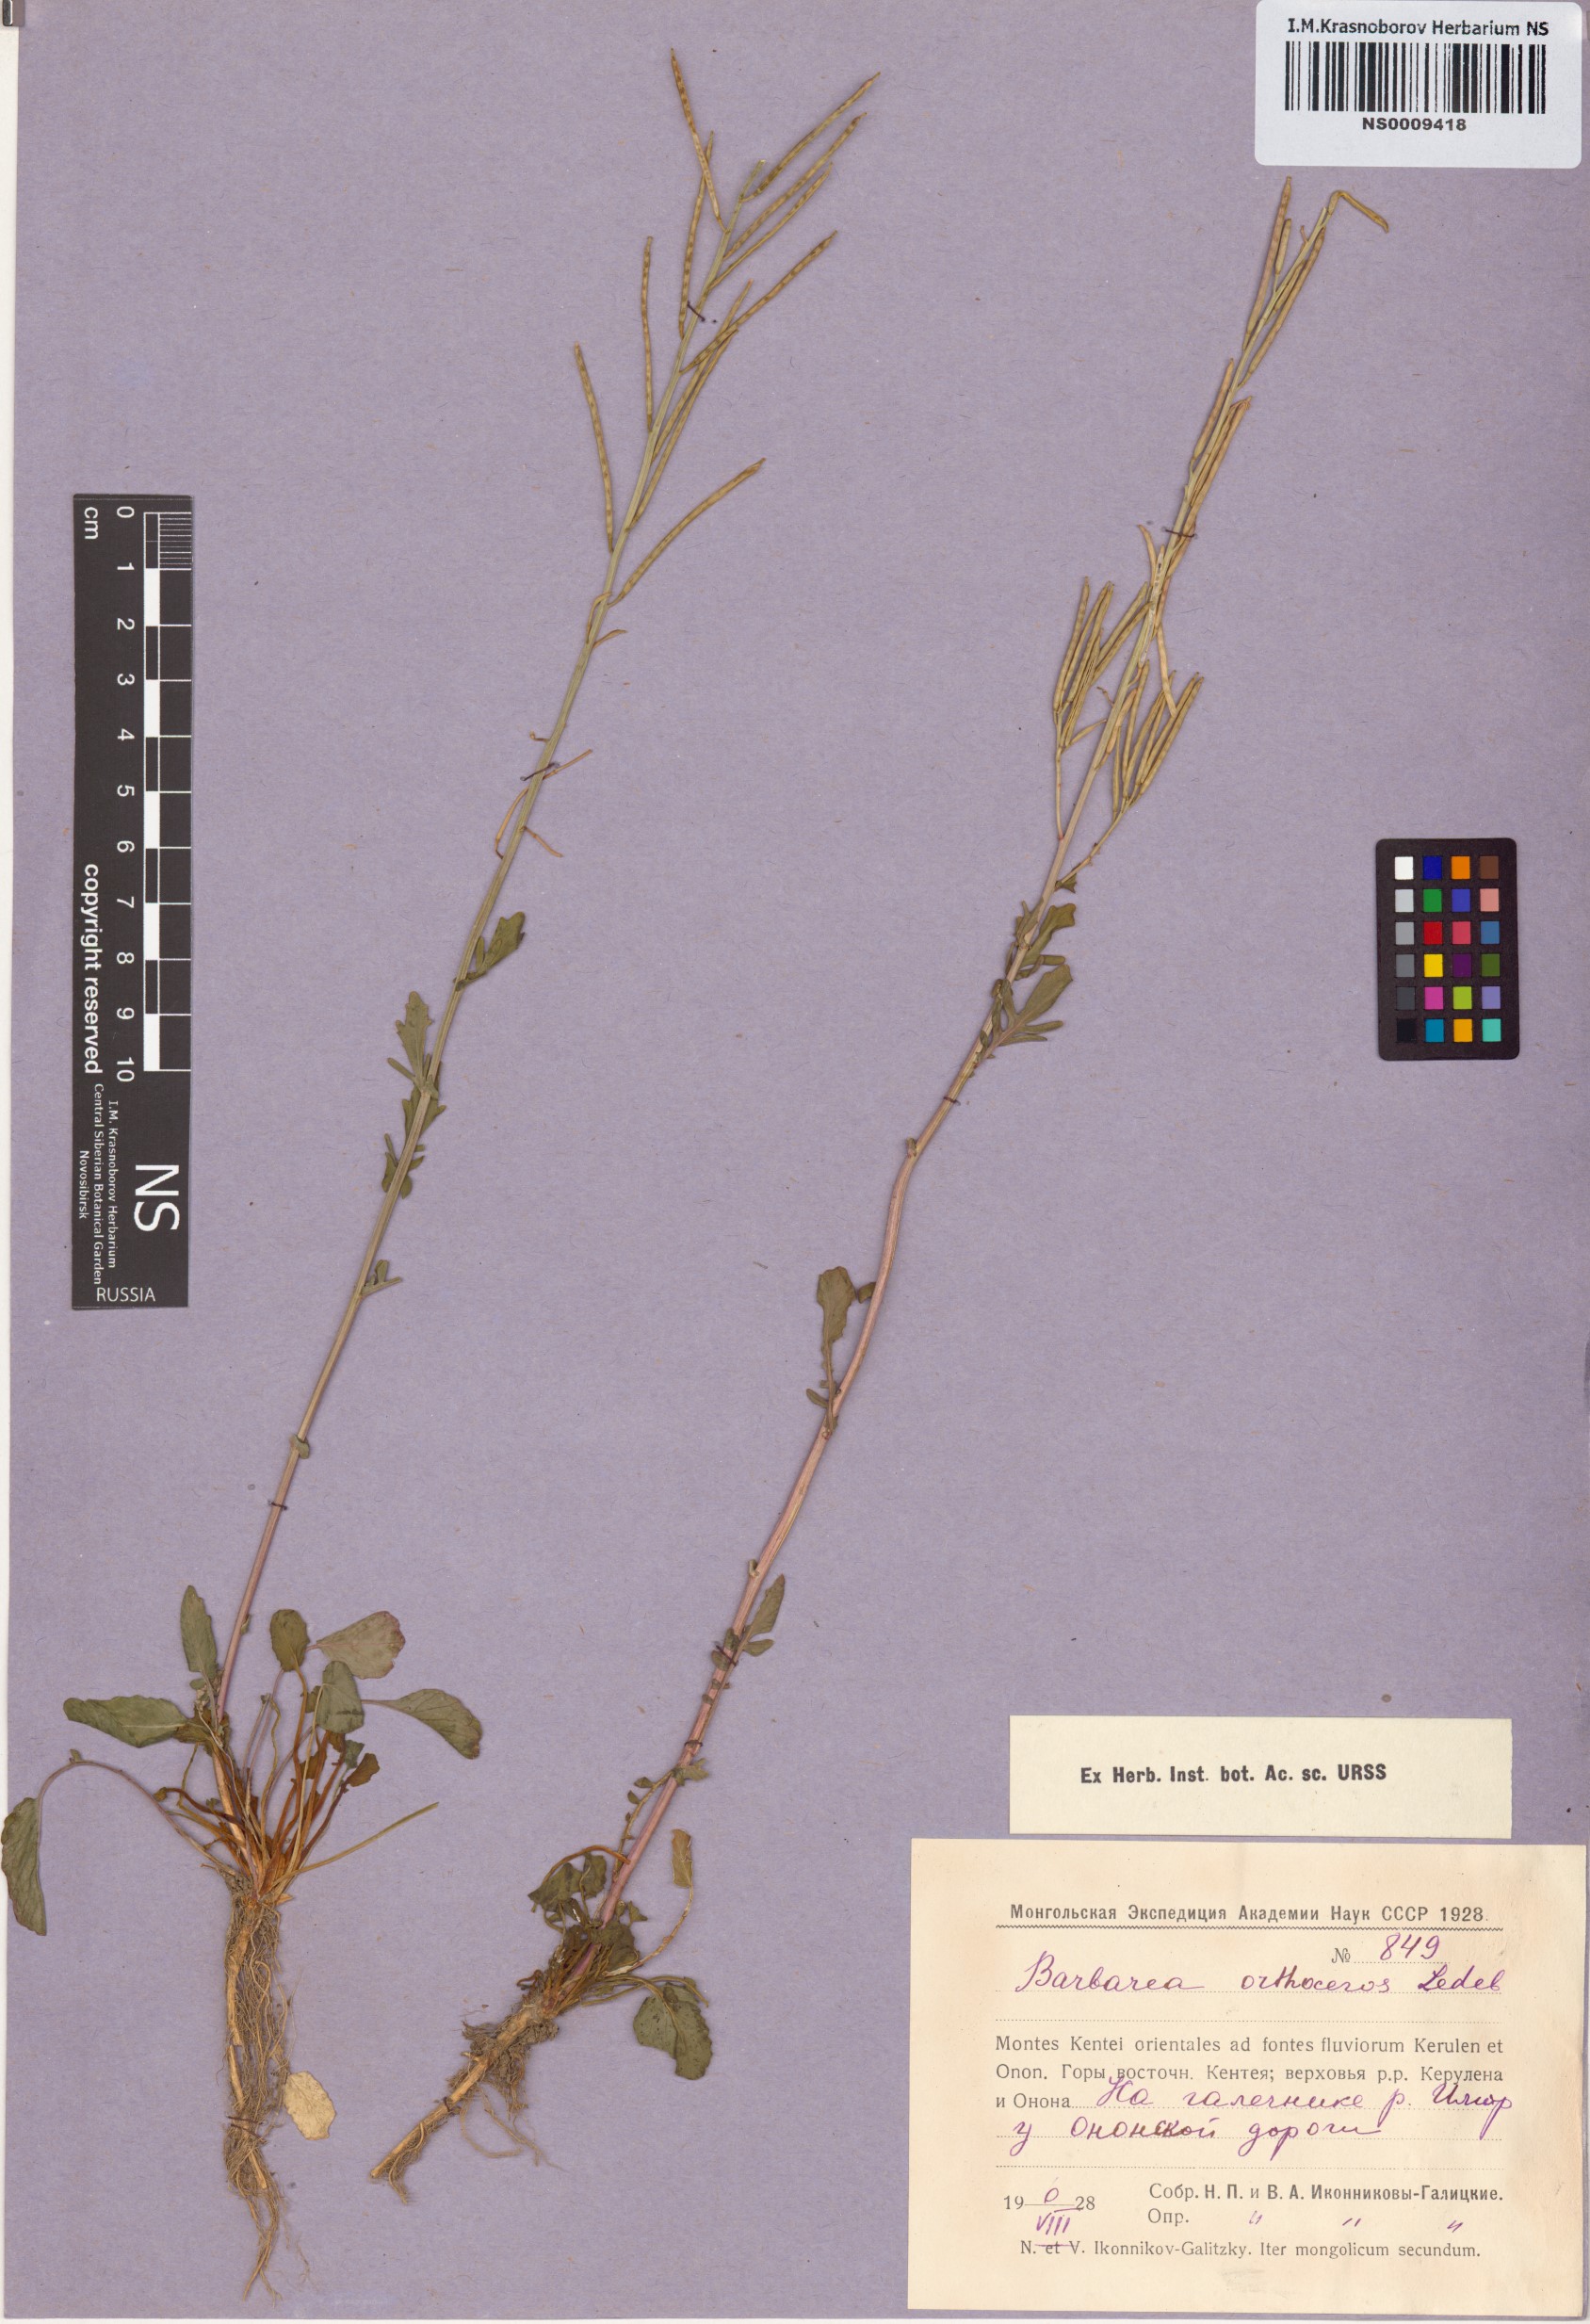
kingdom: Plantae
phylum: Tracheophyta
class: Magnoliopsida
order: Brassicales
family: Brassicaceae
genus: Barbarea
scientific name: Barbarea orthoceras
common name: American wintercress
